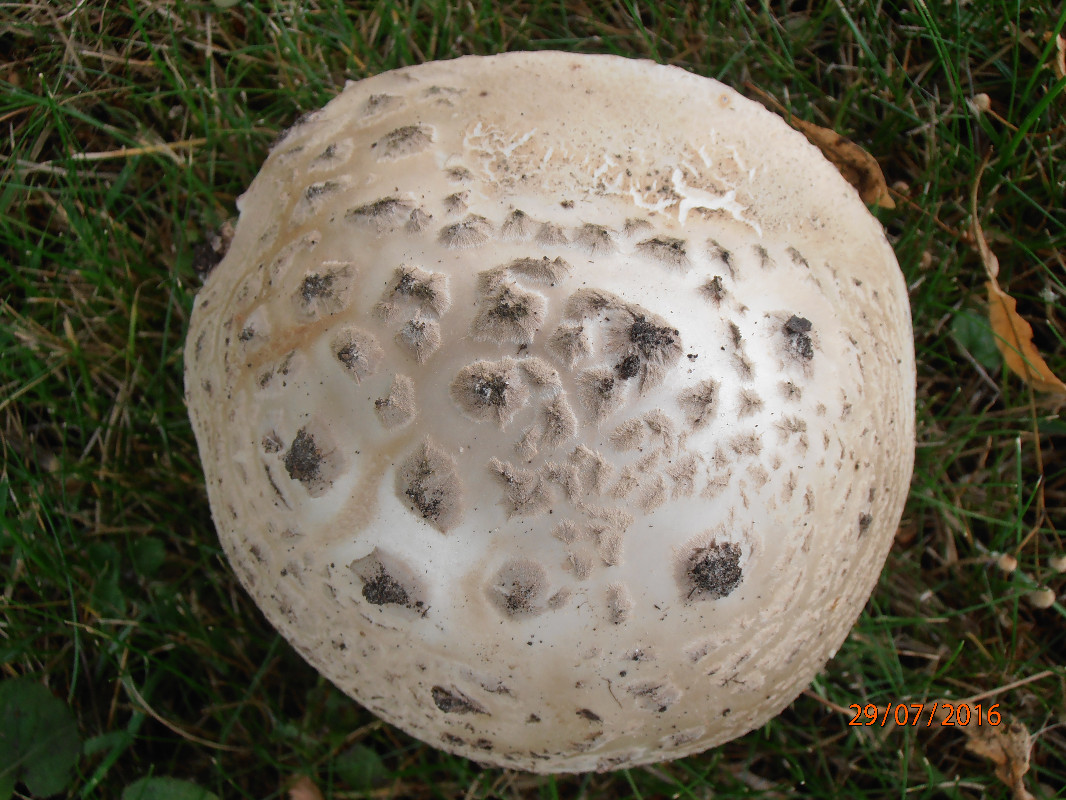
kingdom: Fungi
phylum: Basidiomycota
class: Agaricomycetes
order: Agaricales
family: Amanitaceae
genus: Amanita
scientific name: Amanita
